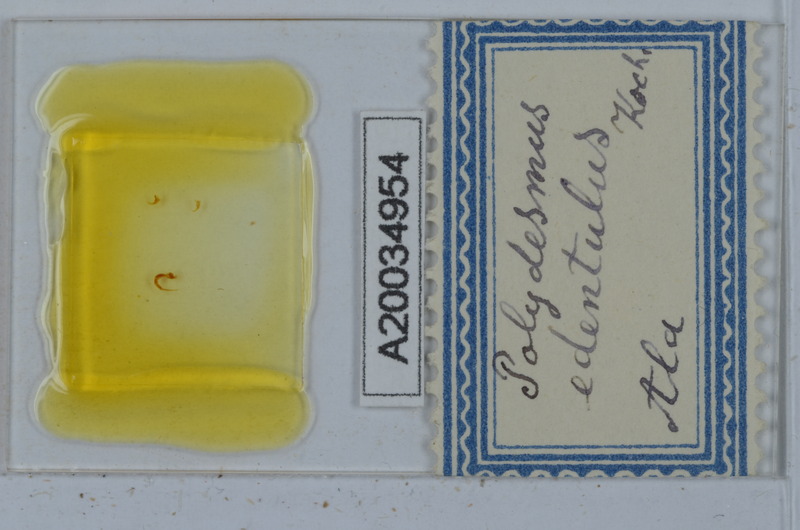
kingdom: Animalia
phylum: Arthropoda
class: Diplopoda
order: Polydesmida
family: Polydesmidae
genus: Polydesmus
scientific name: Polydesmus edentulus
